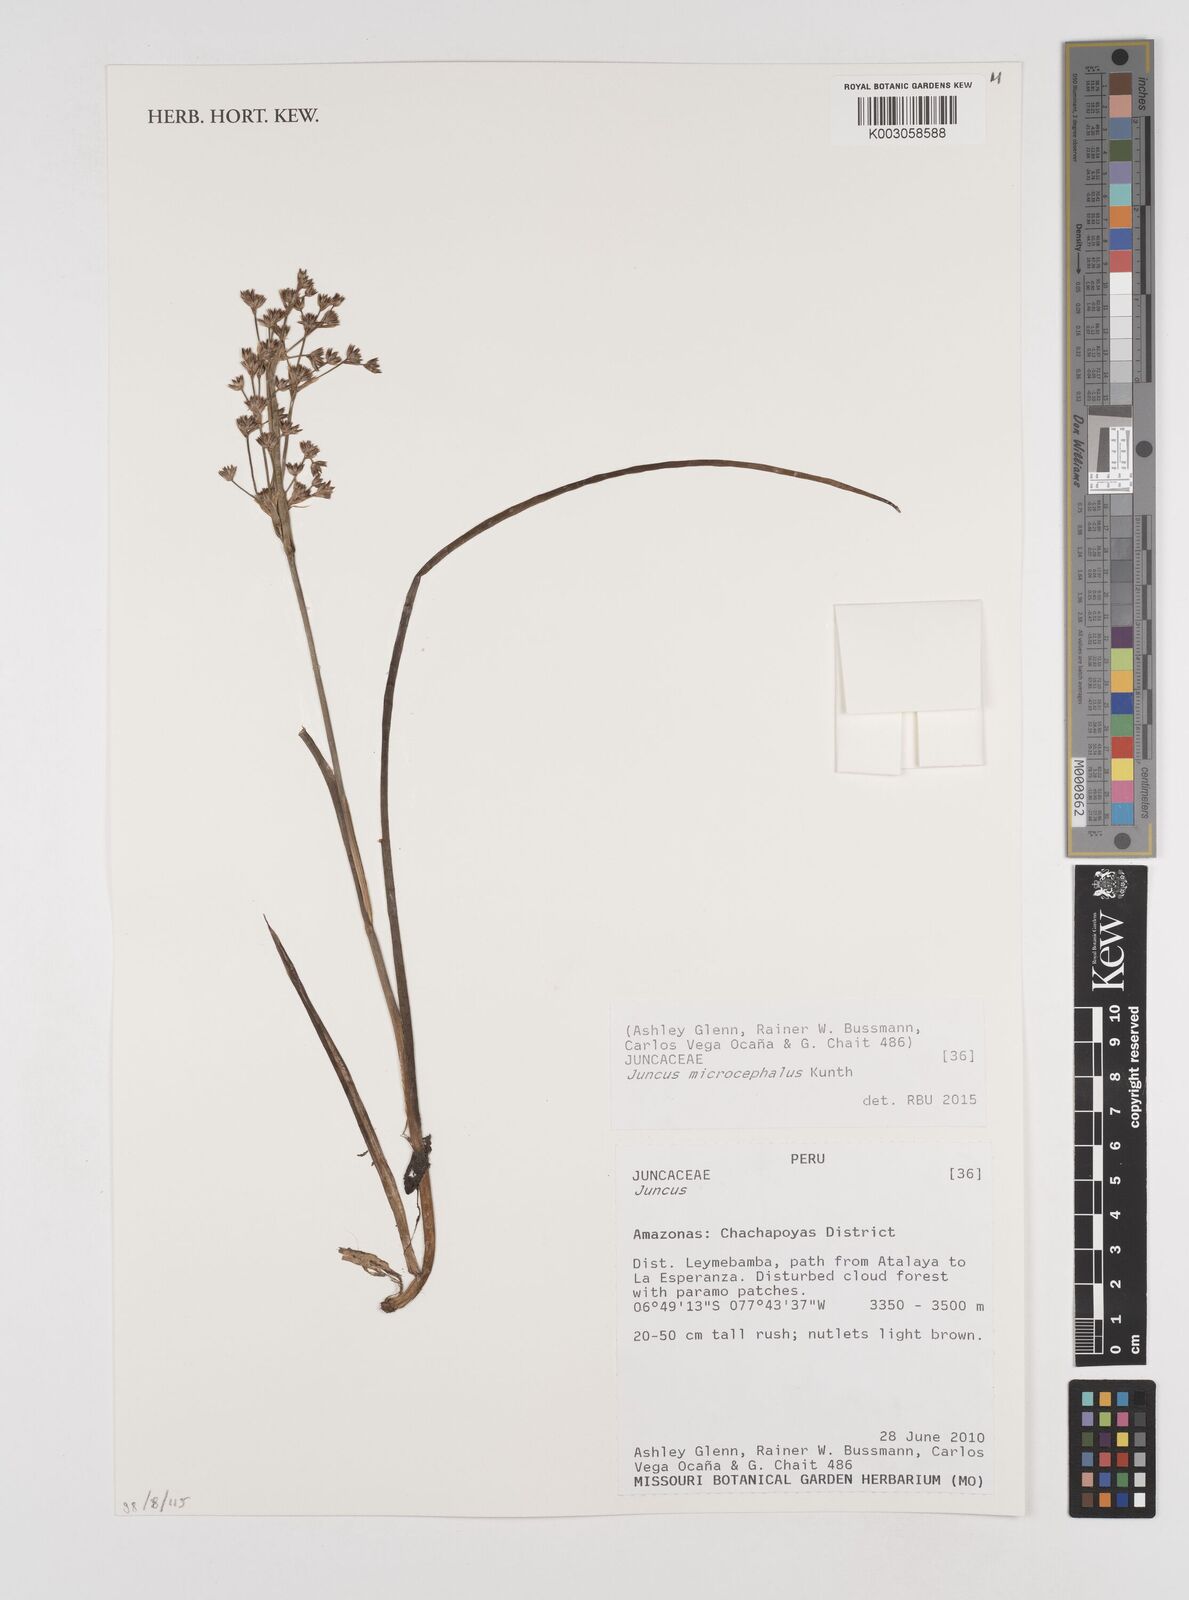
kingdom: Plantae
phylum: Tracheophyta
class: Liliopsida
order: Poales
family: Juncaceae
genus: Juncus
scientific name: Juncus
